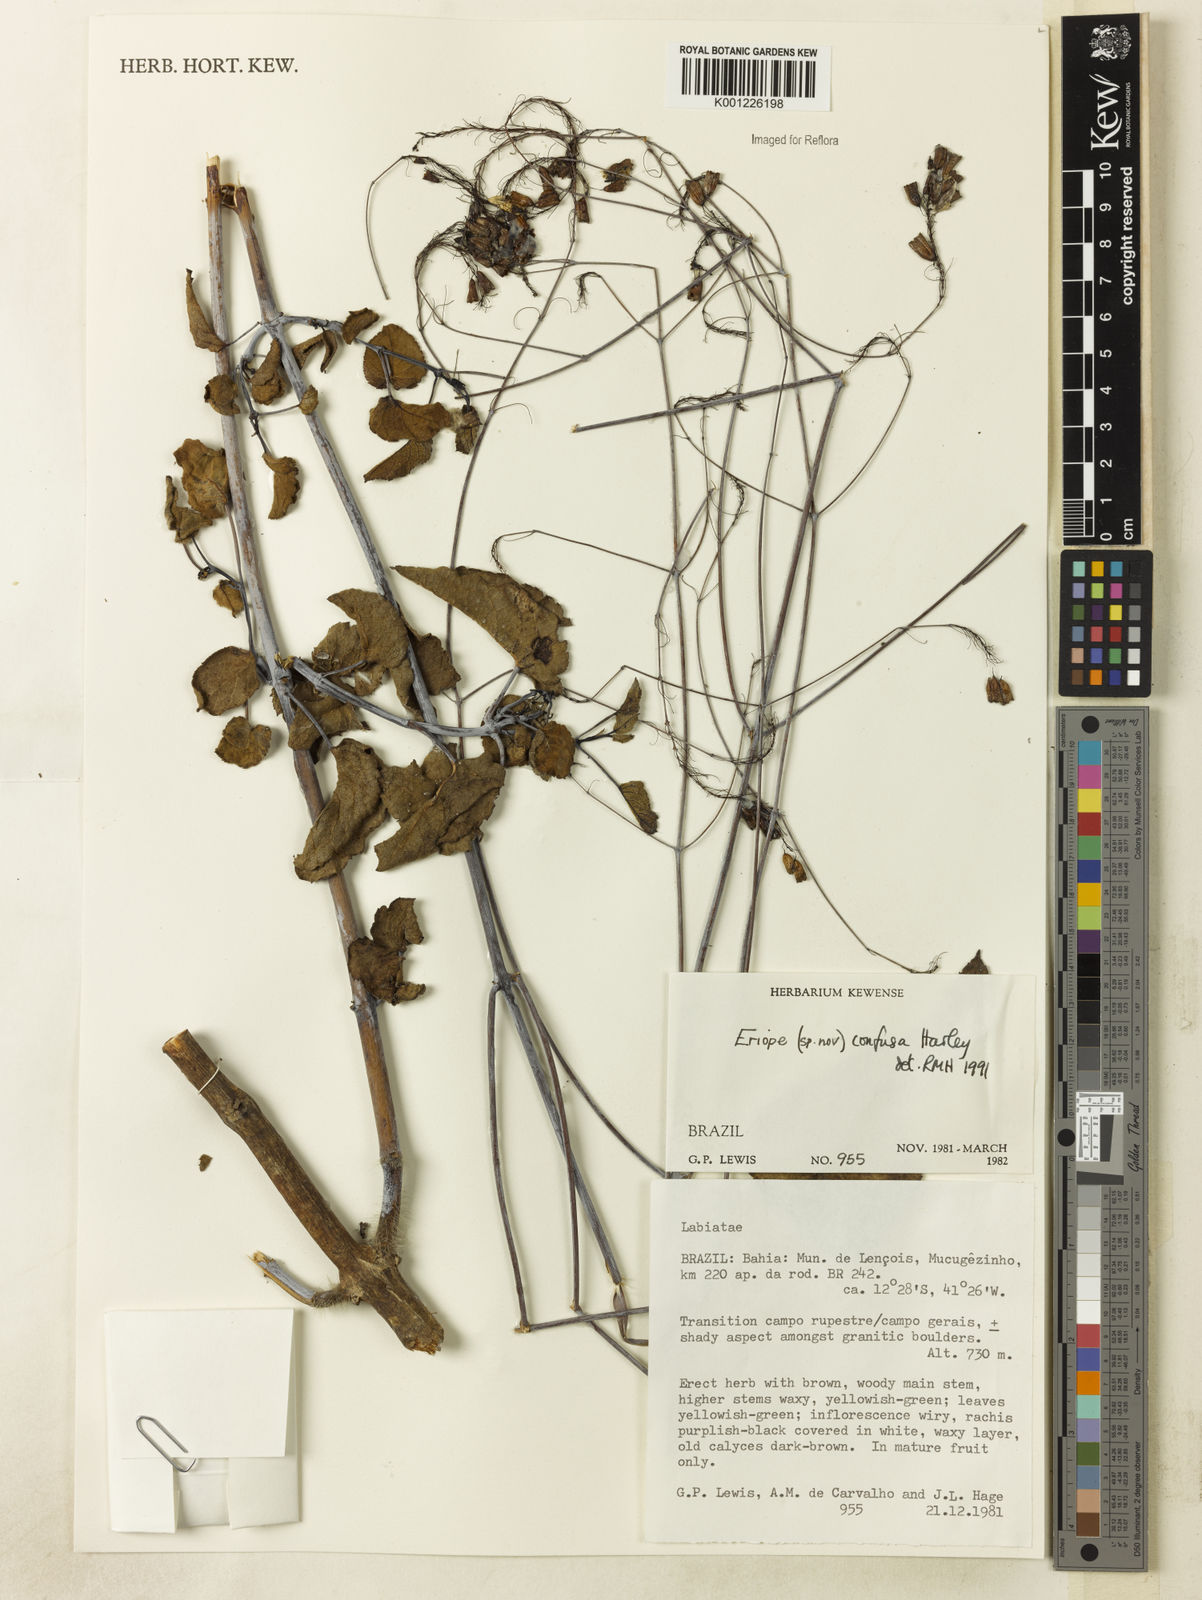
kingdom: Plantae
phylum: Tracheophyta
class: Magnoliopsida
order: Lamiales
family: Lamiaceae
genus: Eriope
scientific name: Eriope confusa
